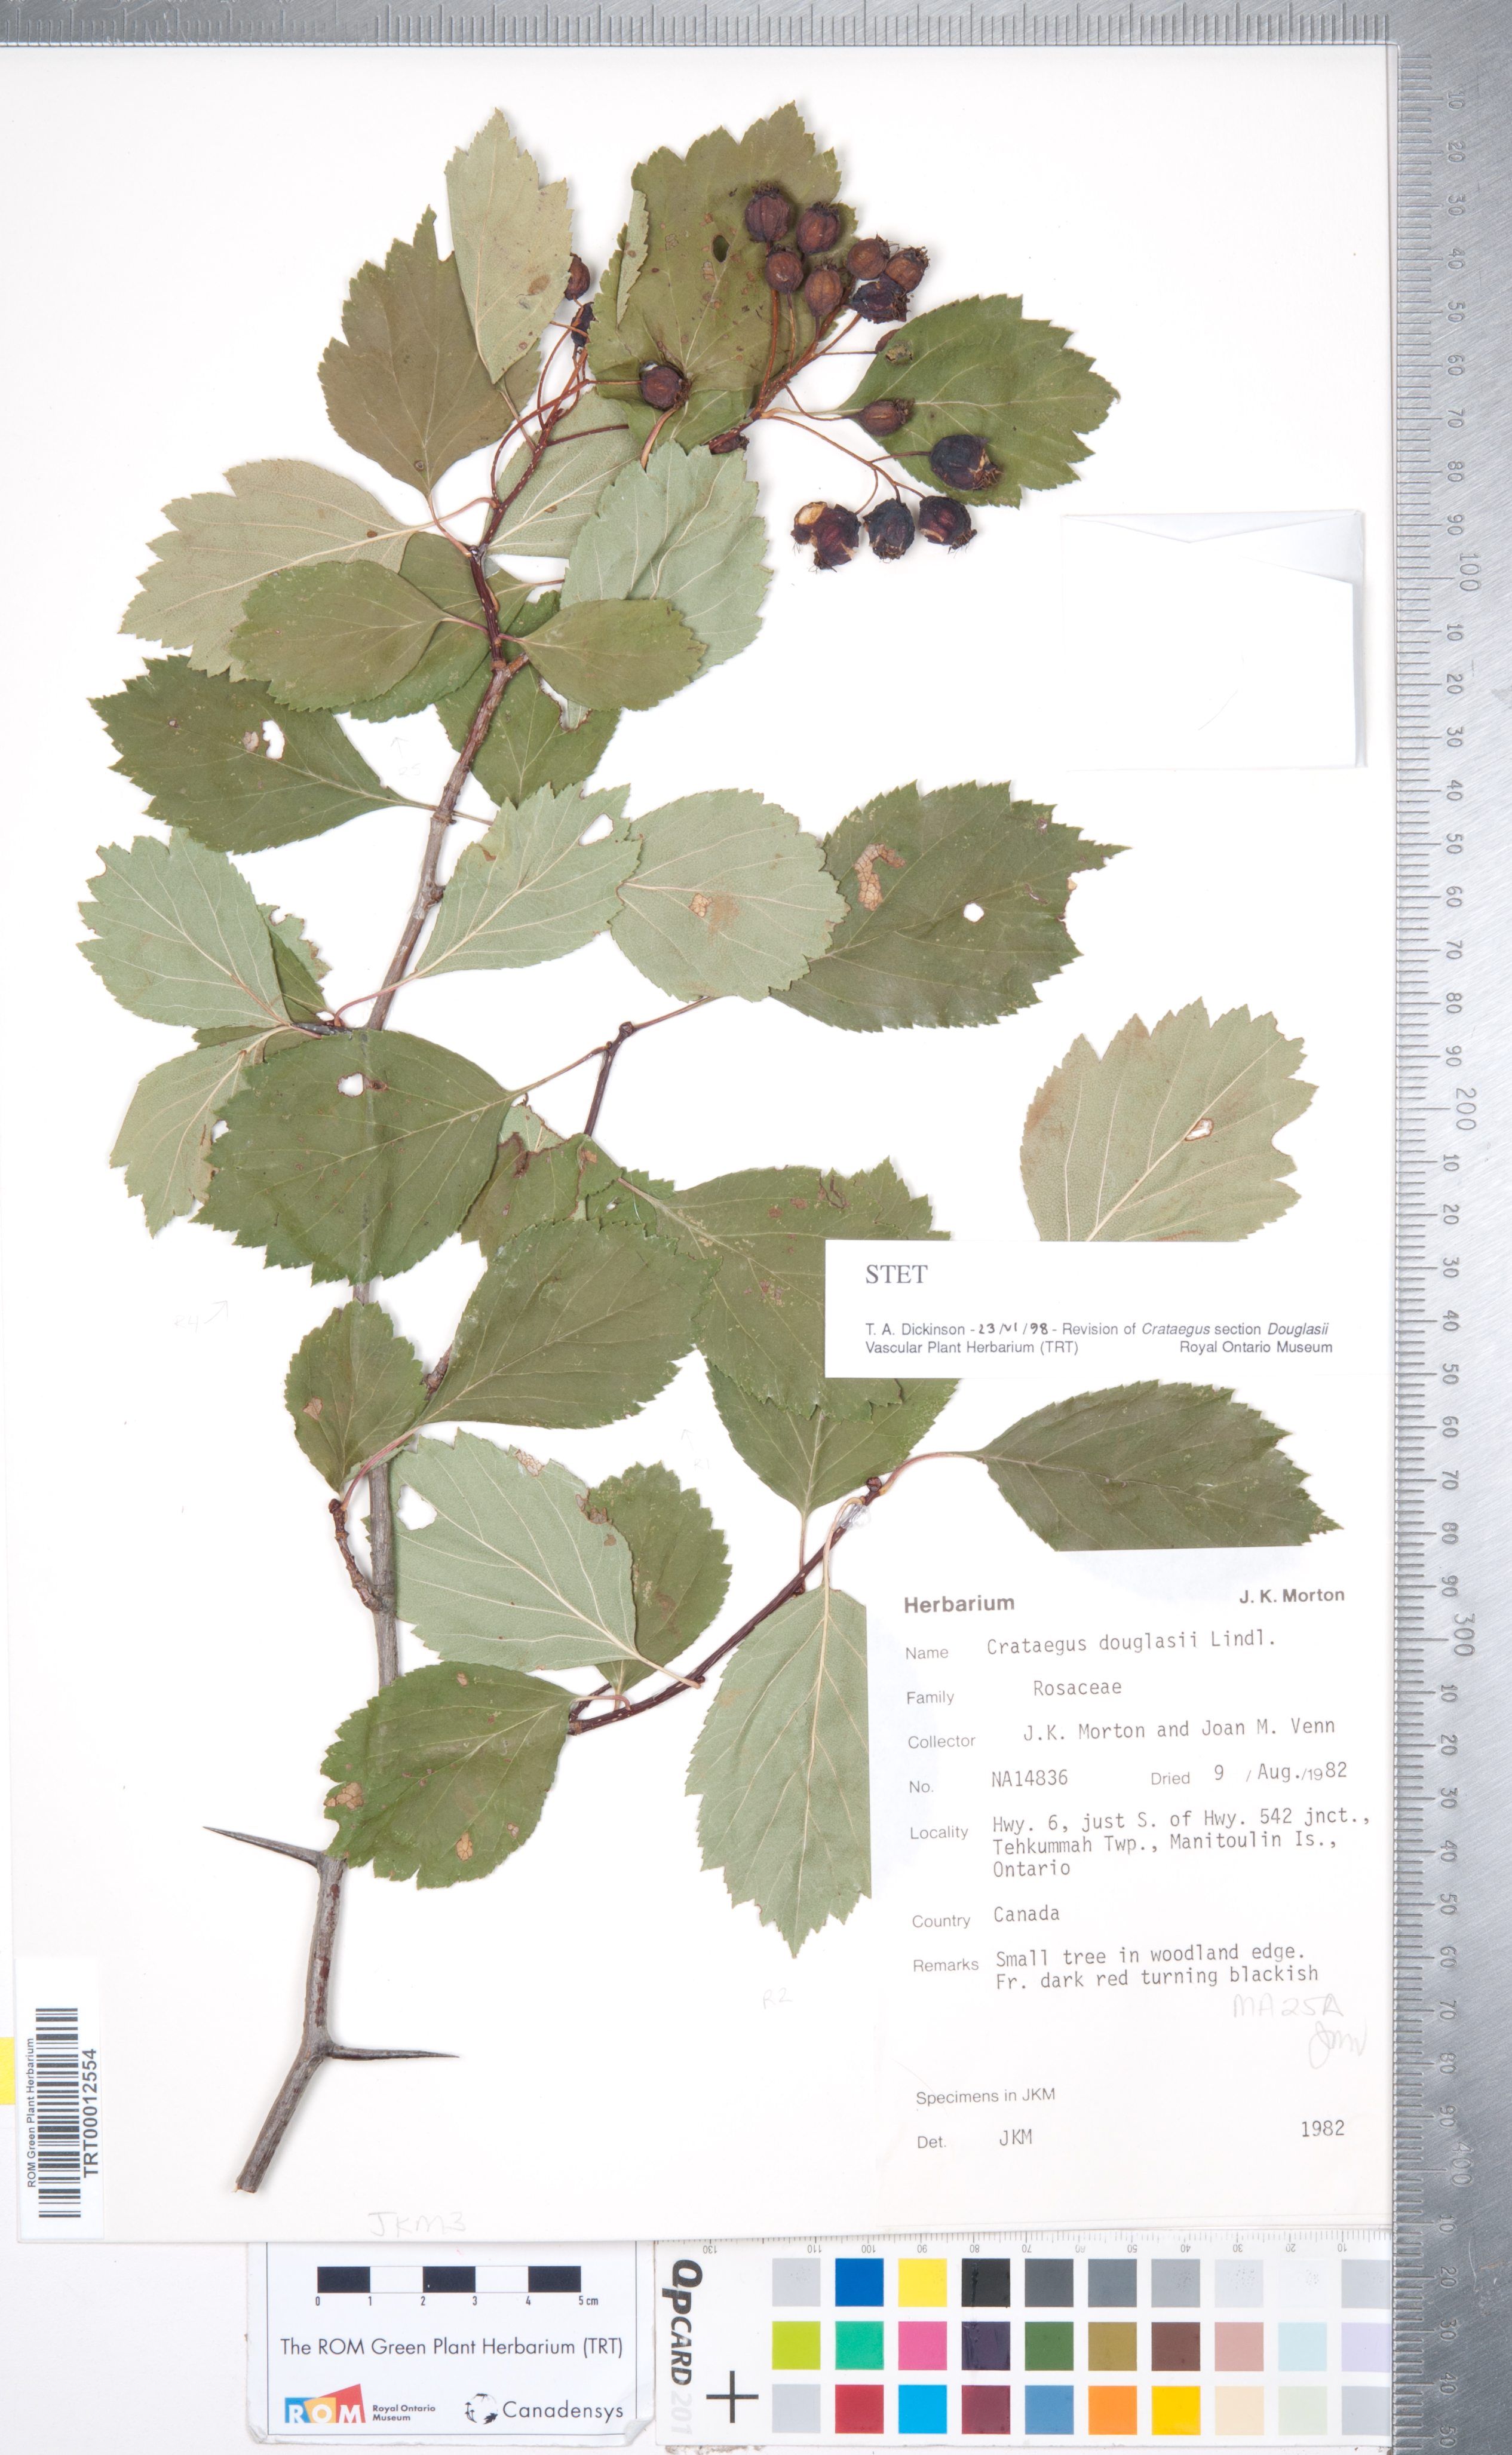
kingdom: Plantae
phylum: Tracheophyta
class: Magnoliopsida
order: Rosales
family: Rosaceae
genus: Crataegus
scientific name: Crataegus douglasii
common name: Black hawthorn
